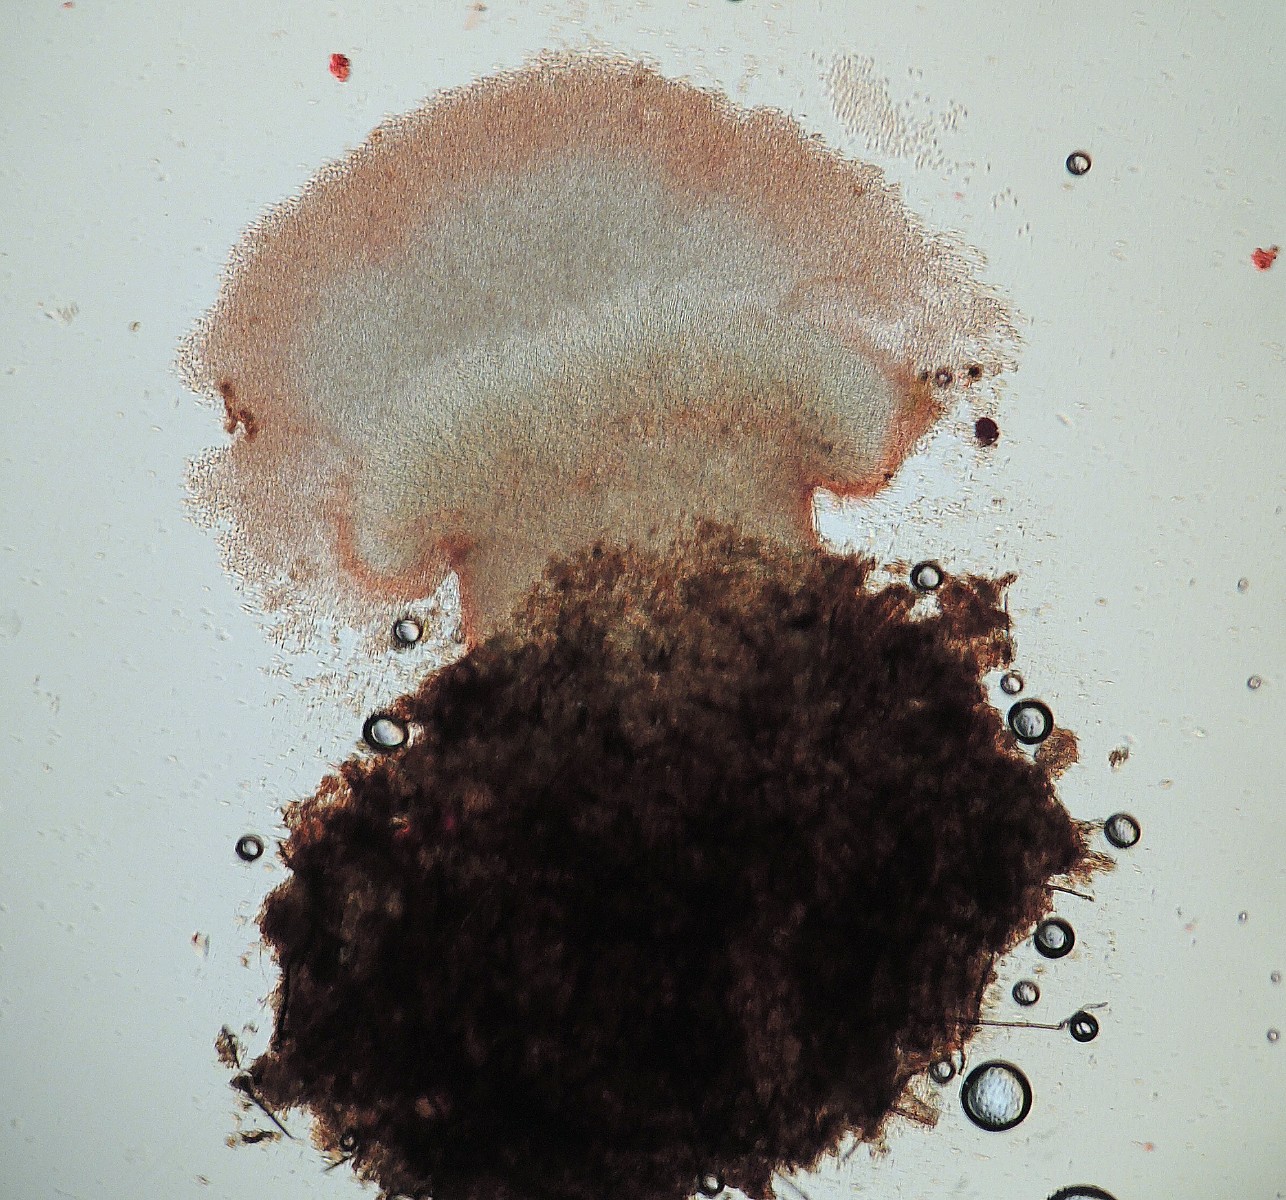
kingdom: Fungi
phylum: Ascomycota
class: Sordariomycetes
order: Hypocreales
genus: Stilbella
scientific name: Stilbella
